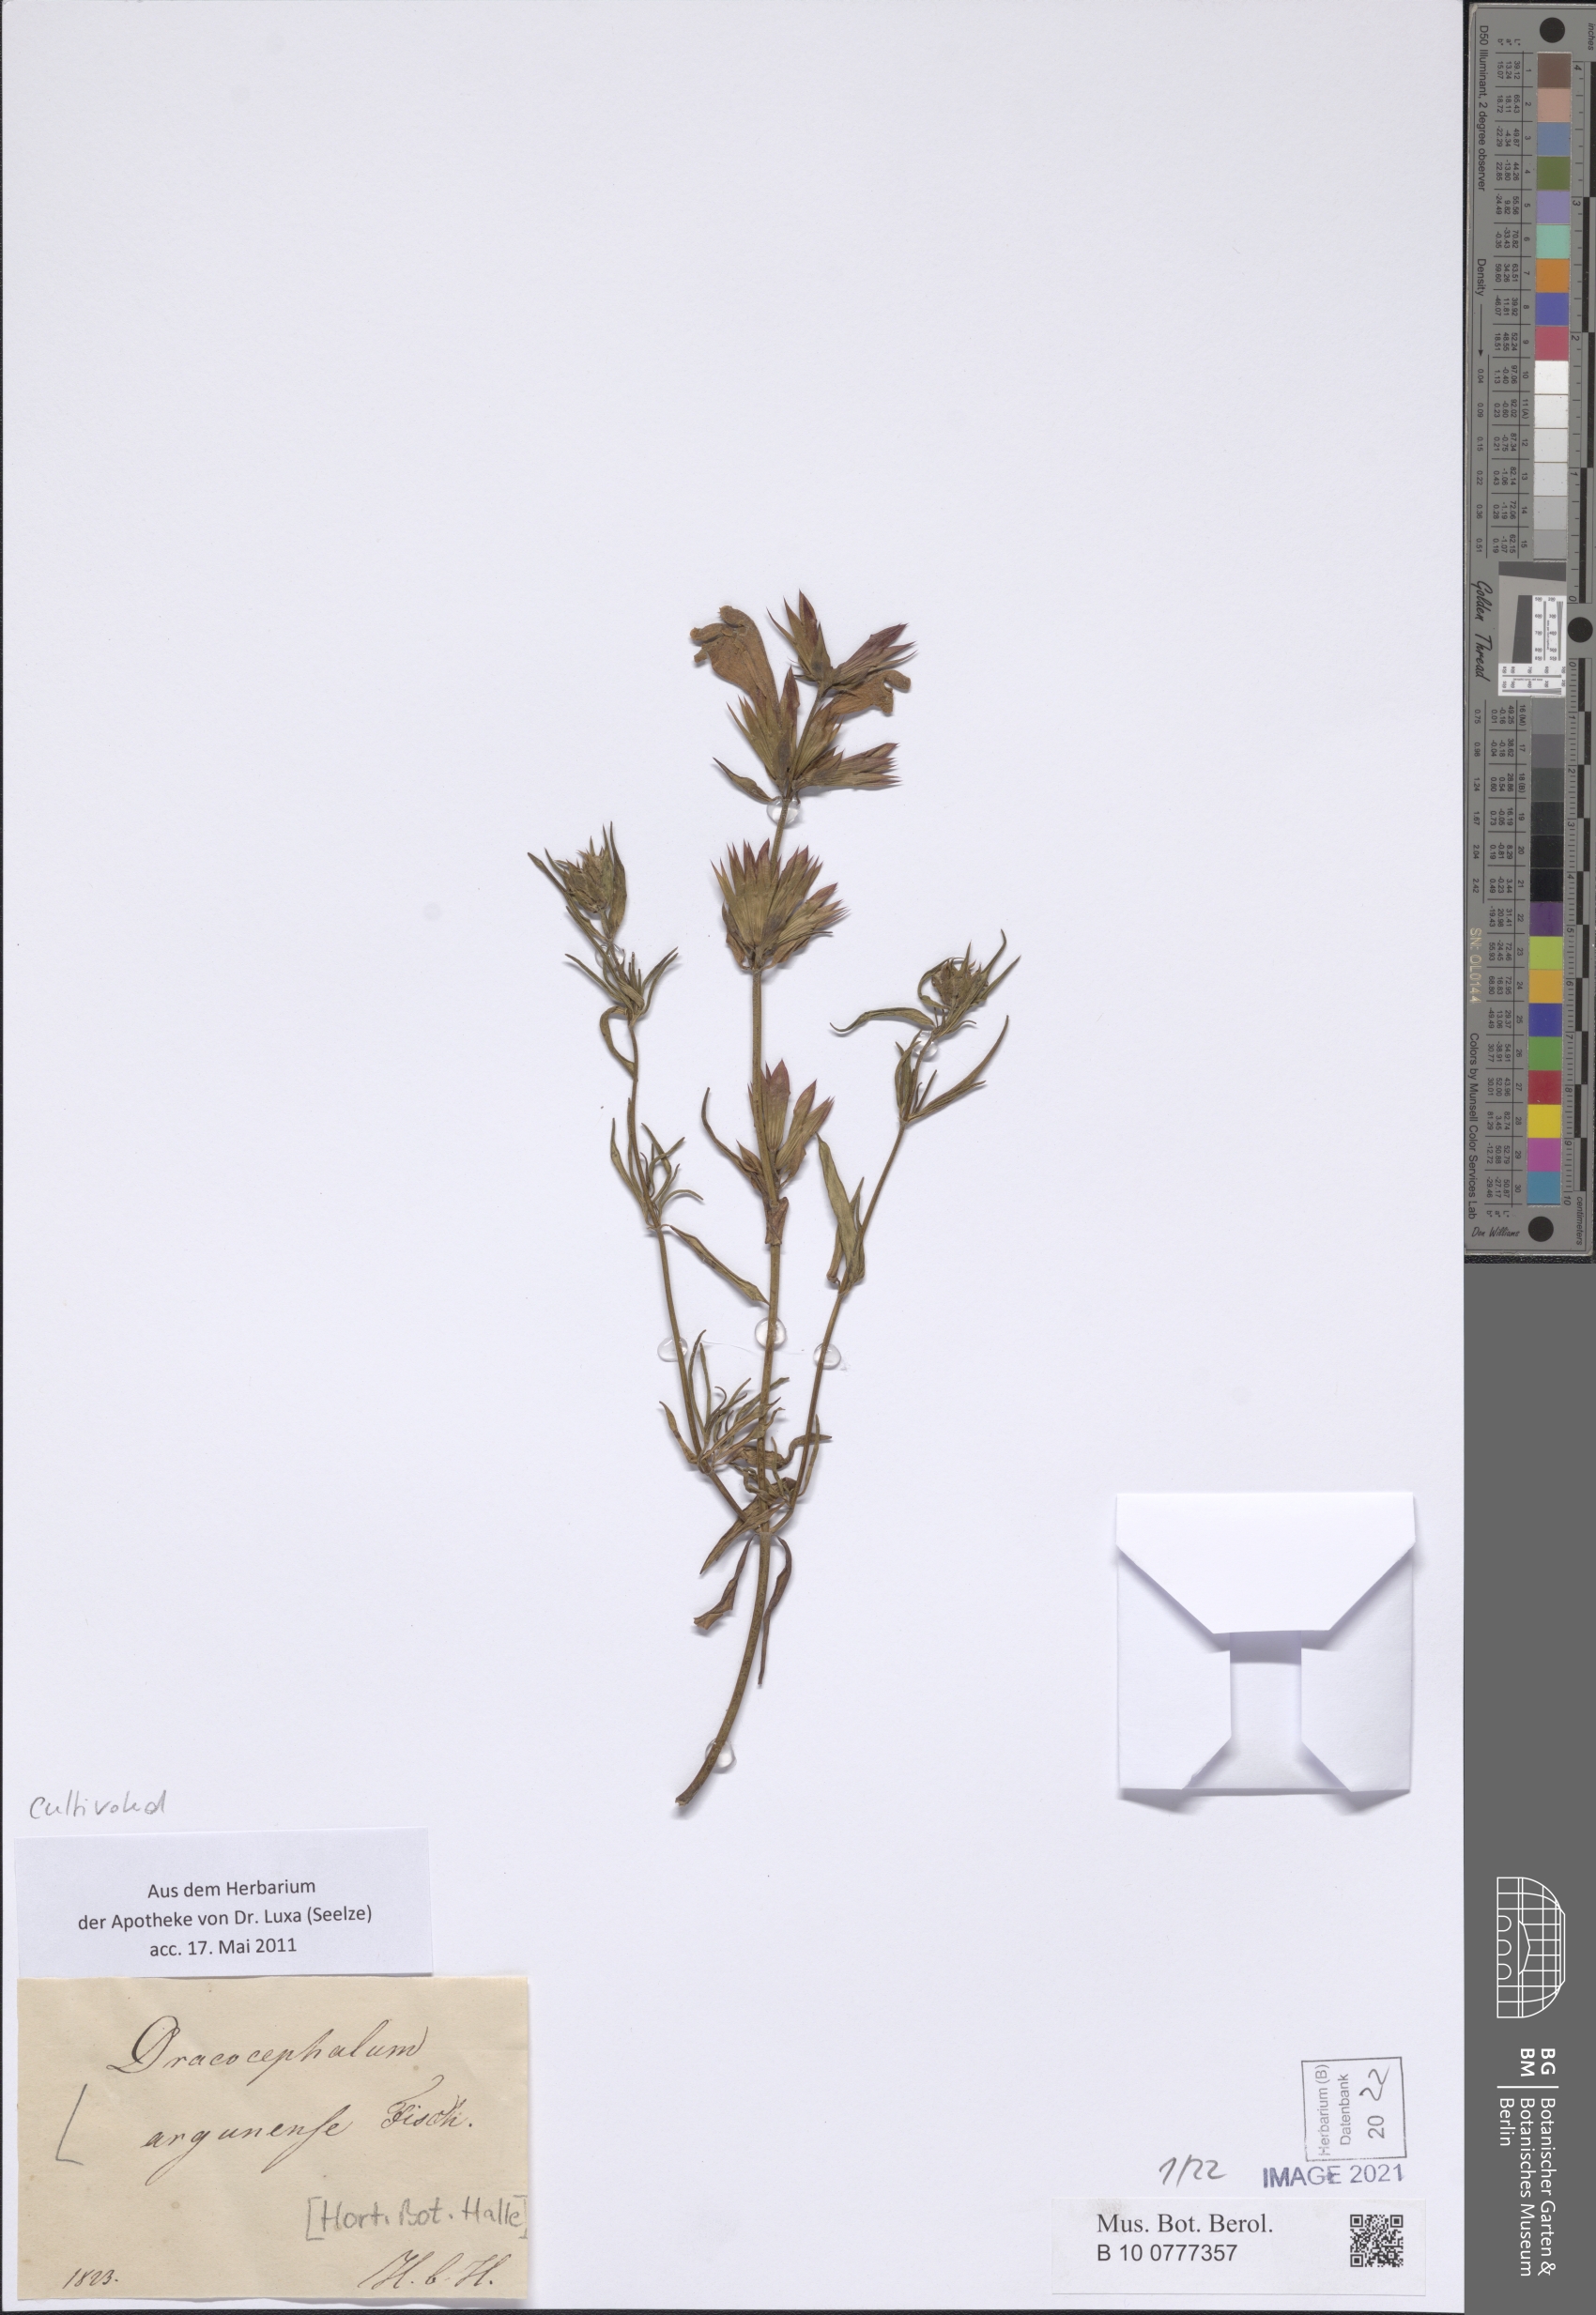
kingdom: Plantae
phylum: Tracheophyta
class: Magnoliopsida
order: Lamiales
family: Lamiaceae
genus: Dracocephalum
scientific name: Dracocephalum argunense
